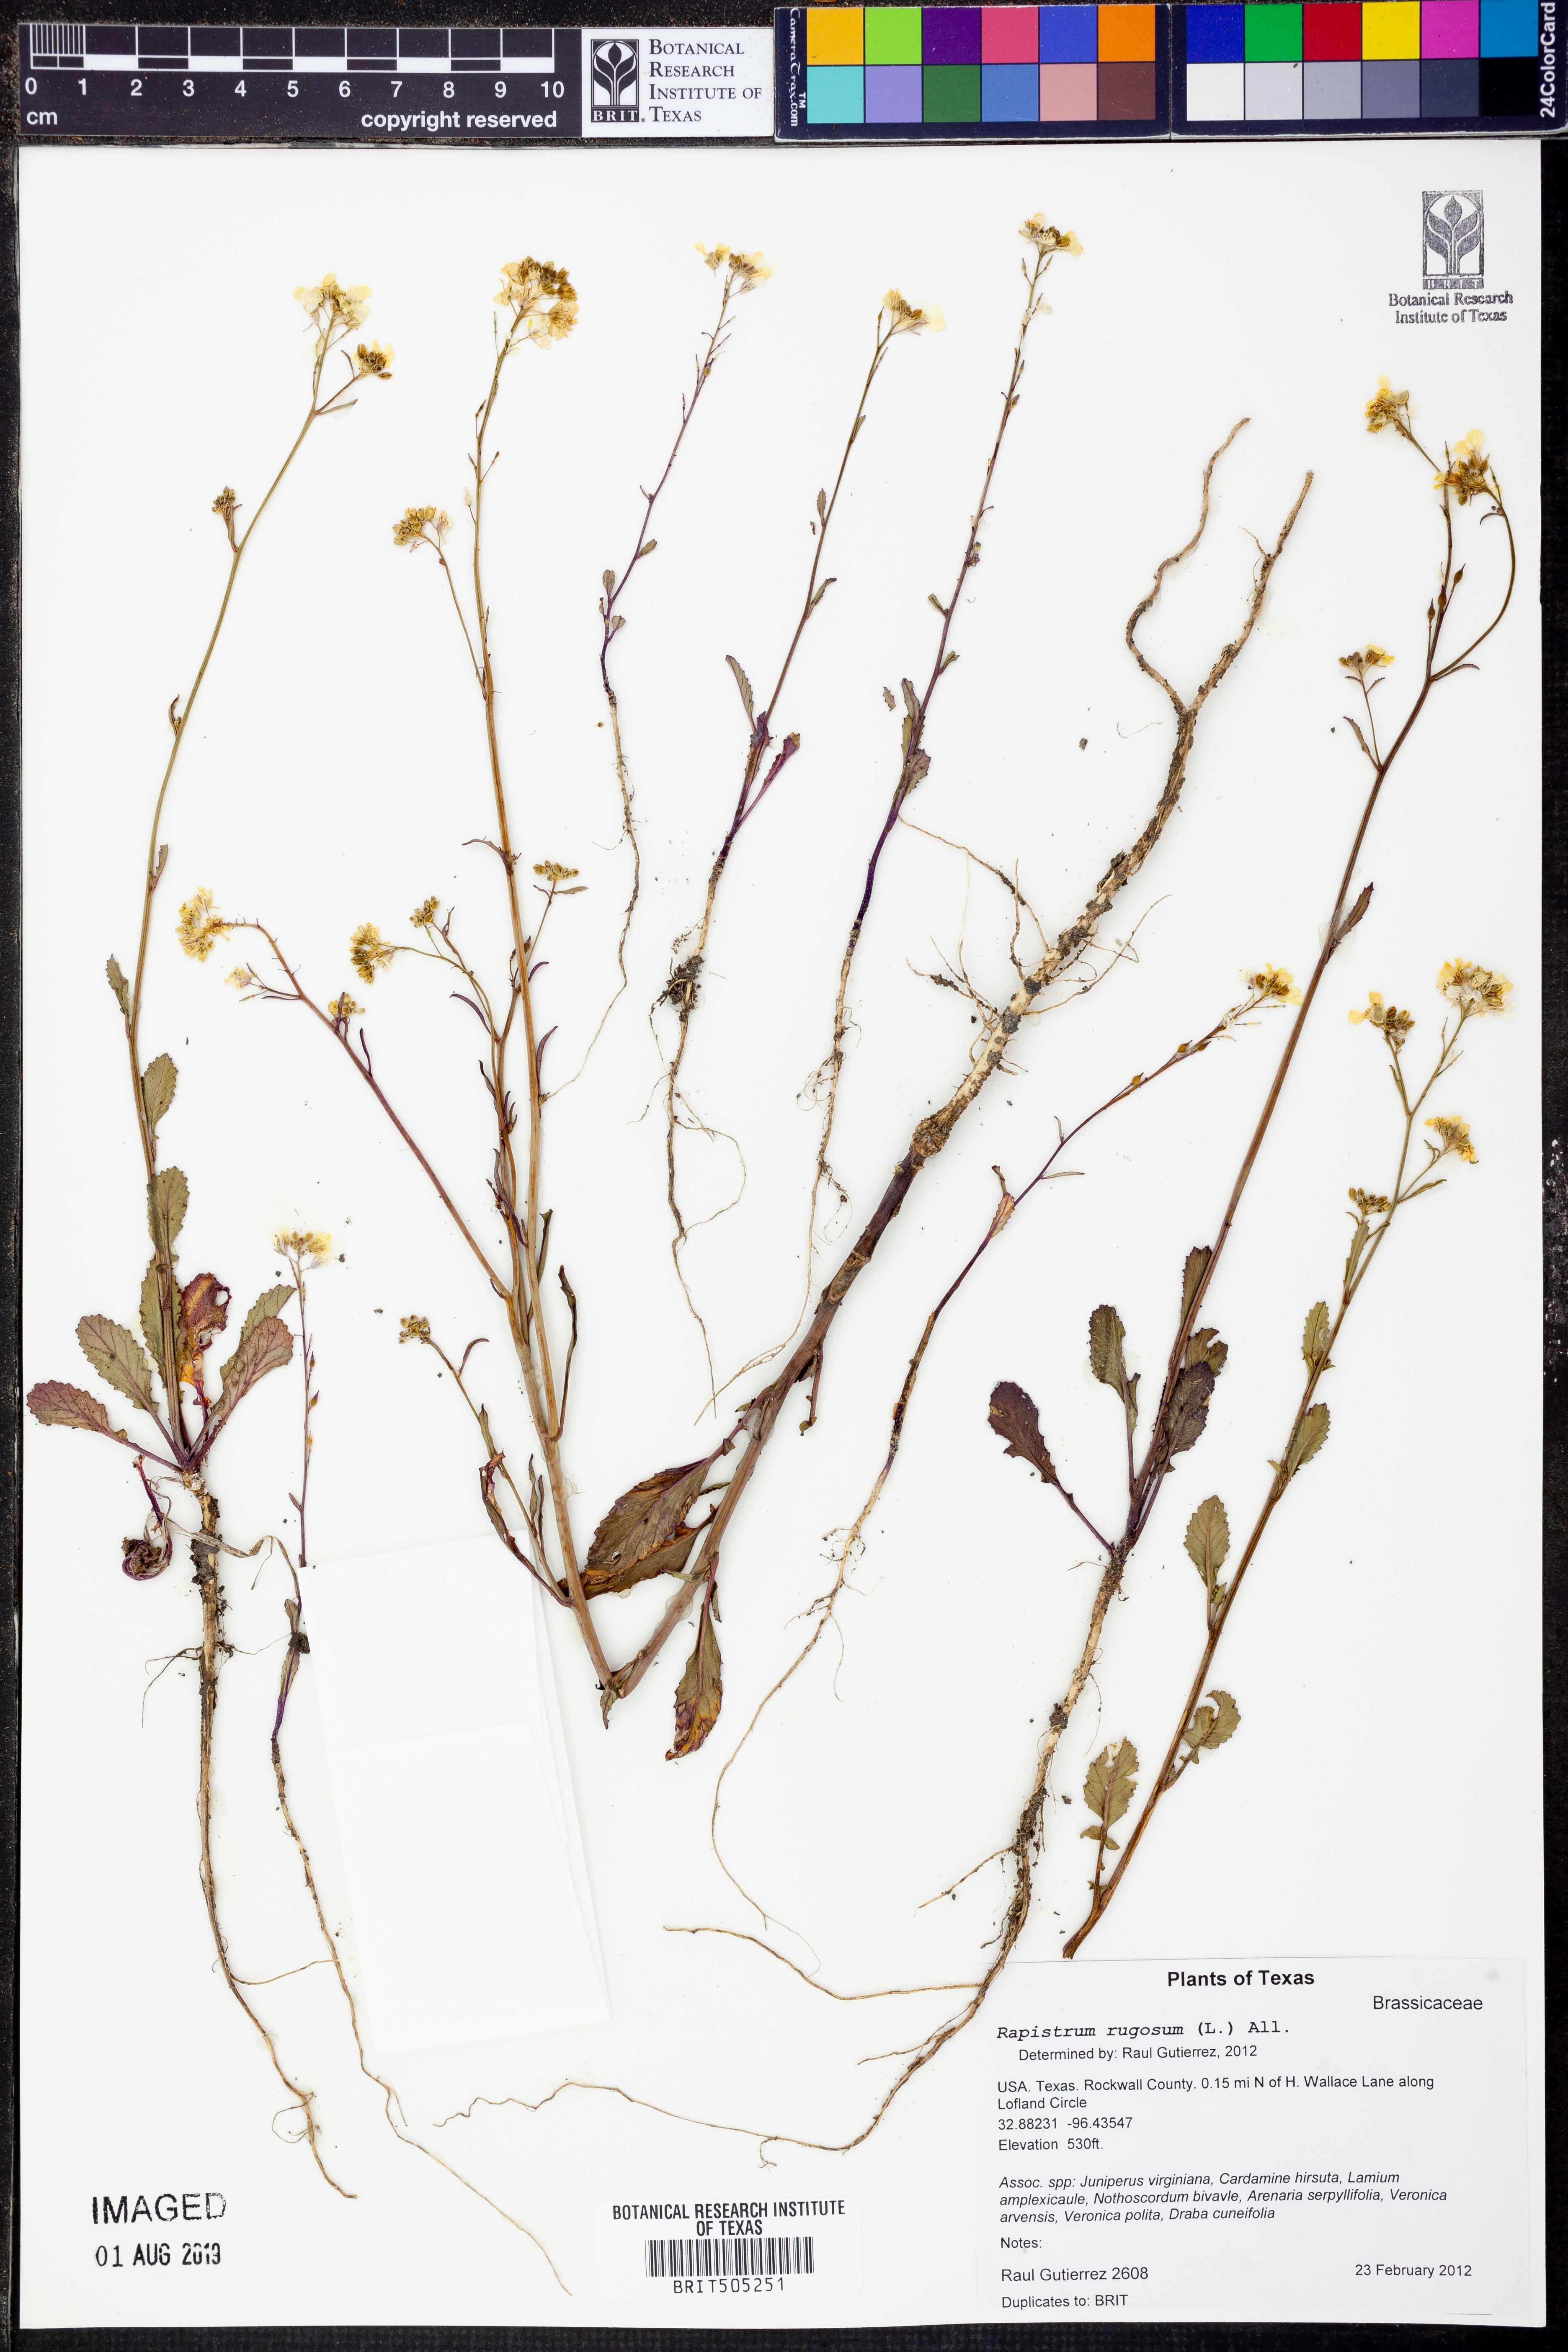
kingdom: Plantae
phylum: Tracheophyta
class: Magnoliopsida
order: Brassicales
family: Brassicaceae
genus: Rapistrum
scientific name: Rapistrum rugosum
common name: Annual bastardcabbage
